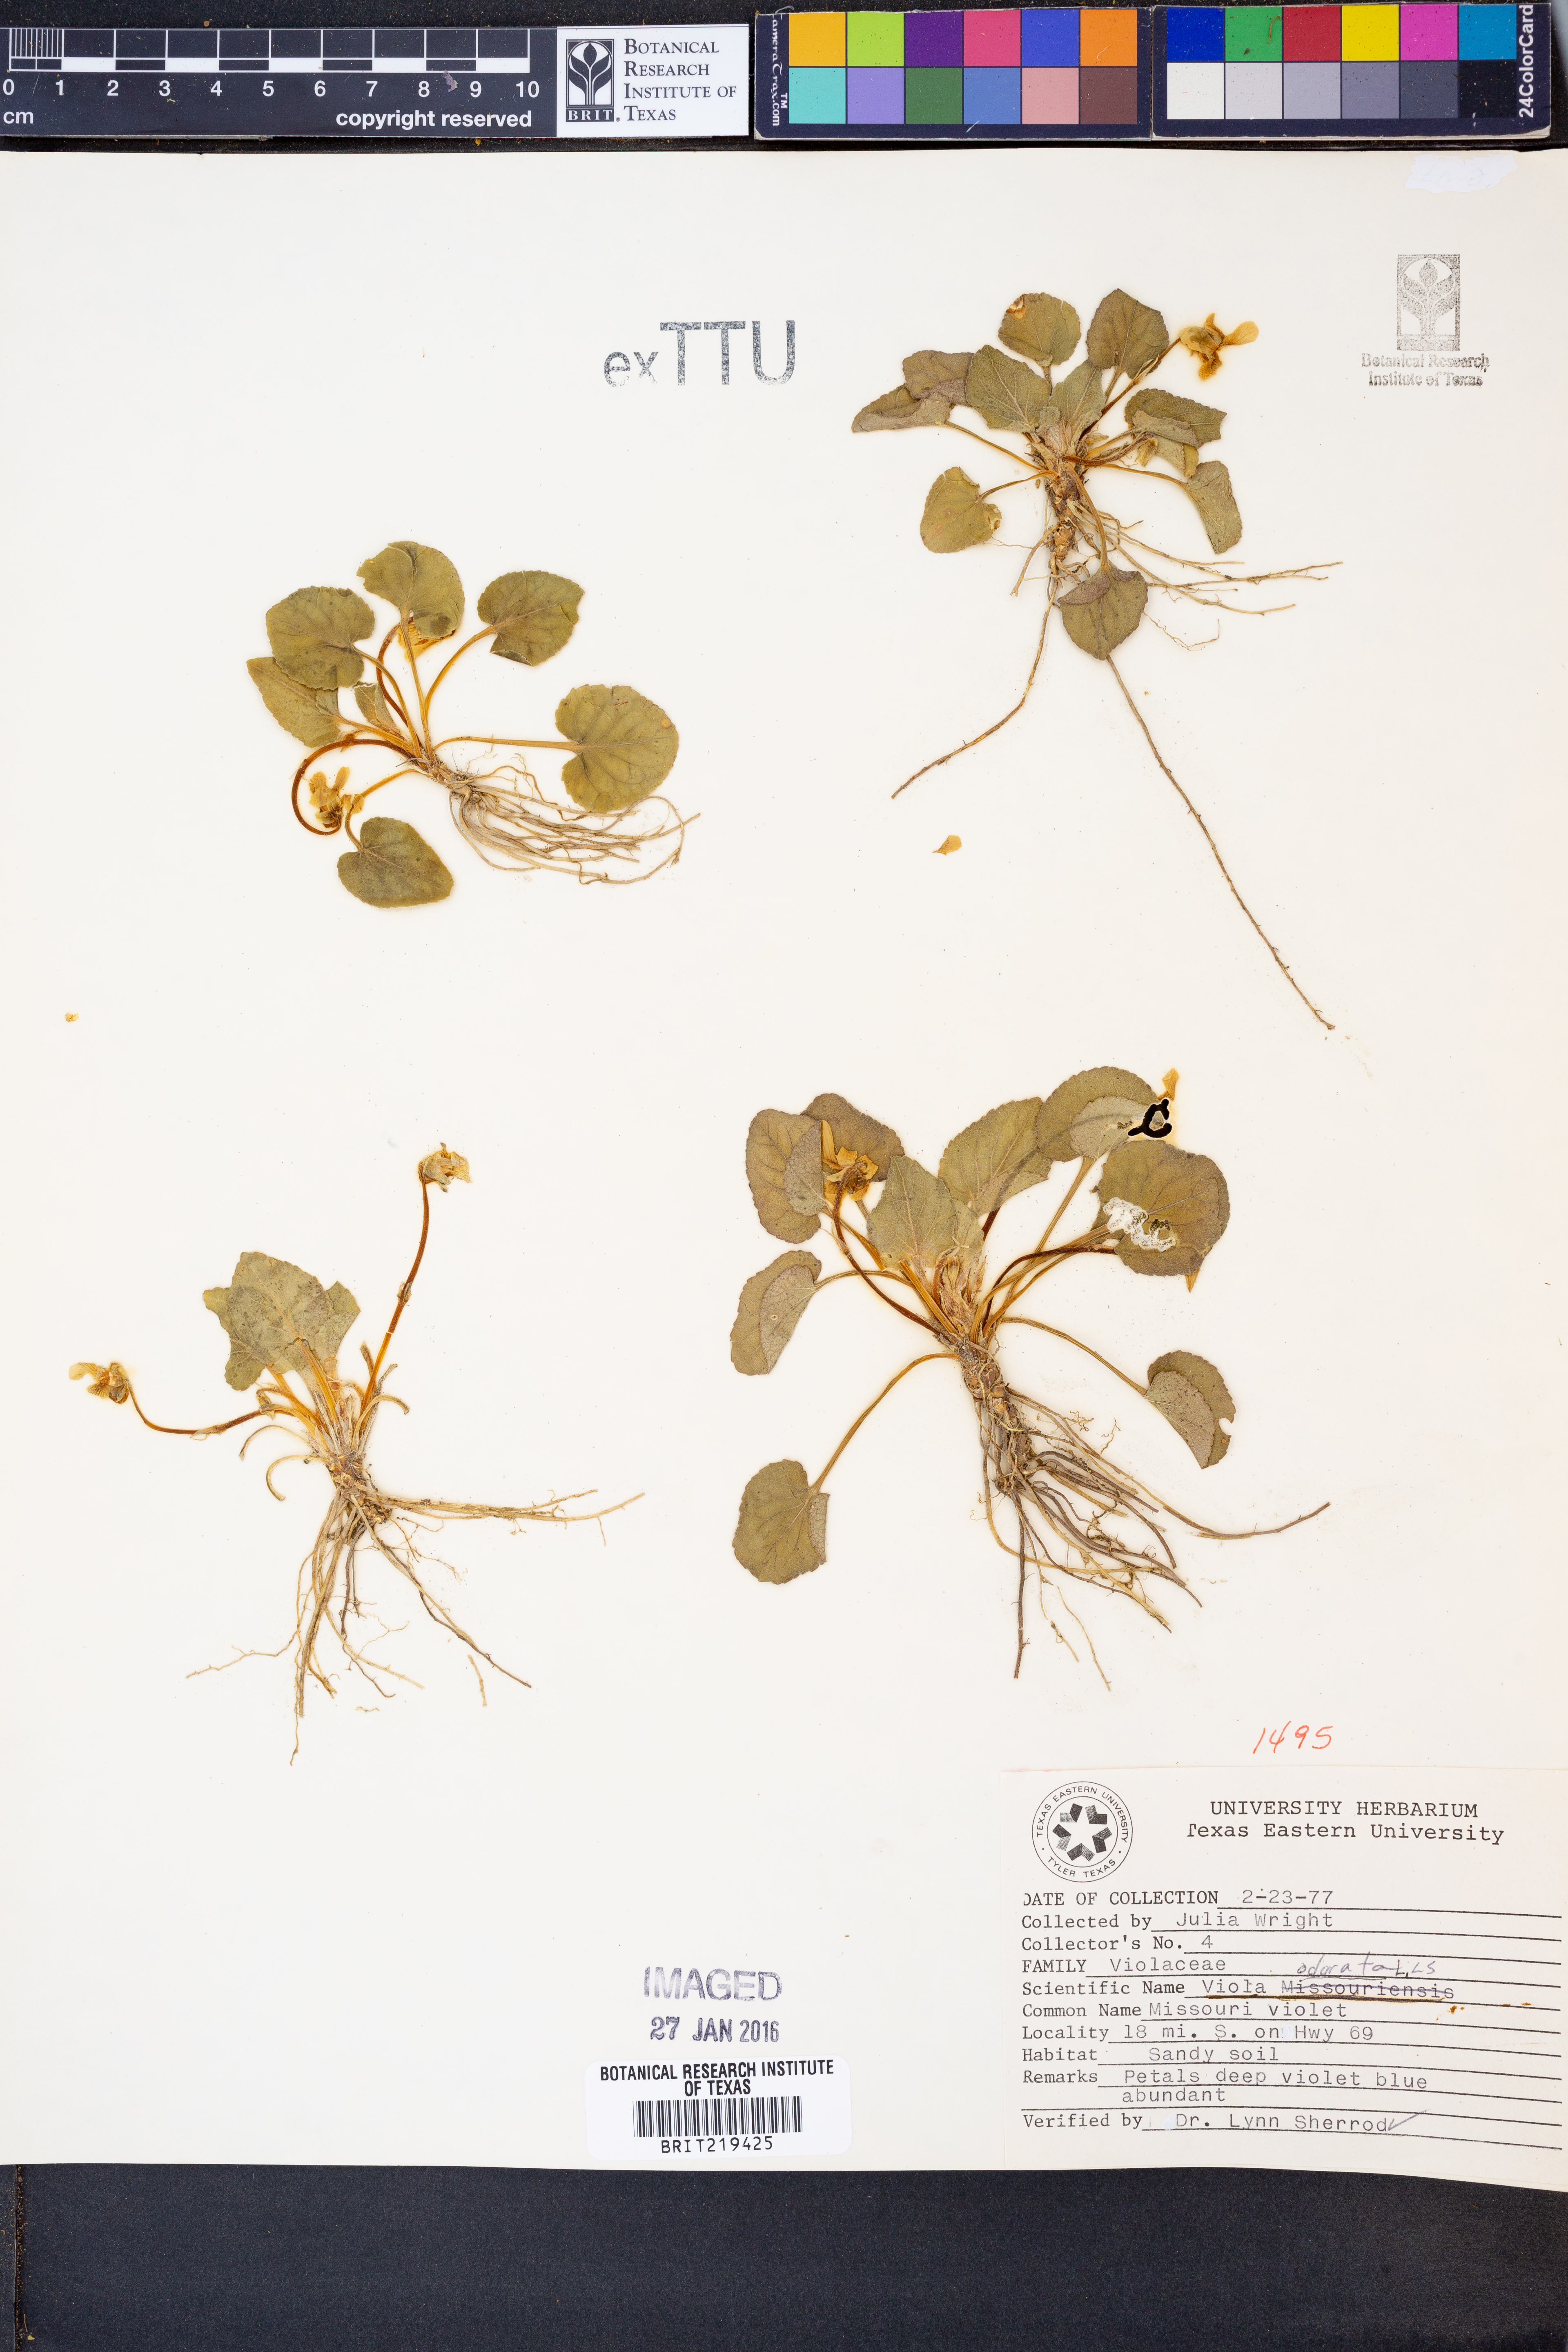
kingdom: Plantae
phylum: Tracheophyta
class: Magnoliopsida
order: Malpighiales
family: Violaceae
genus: Viola
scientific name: Viola odorata
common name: Sweet violet
